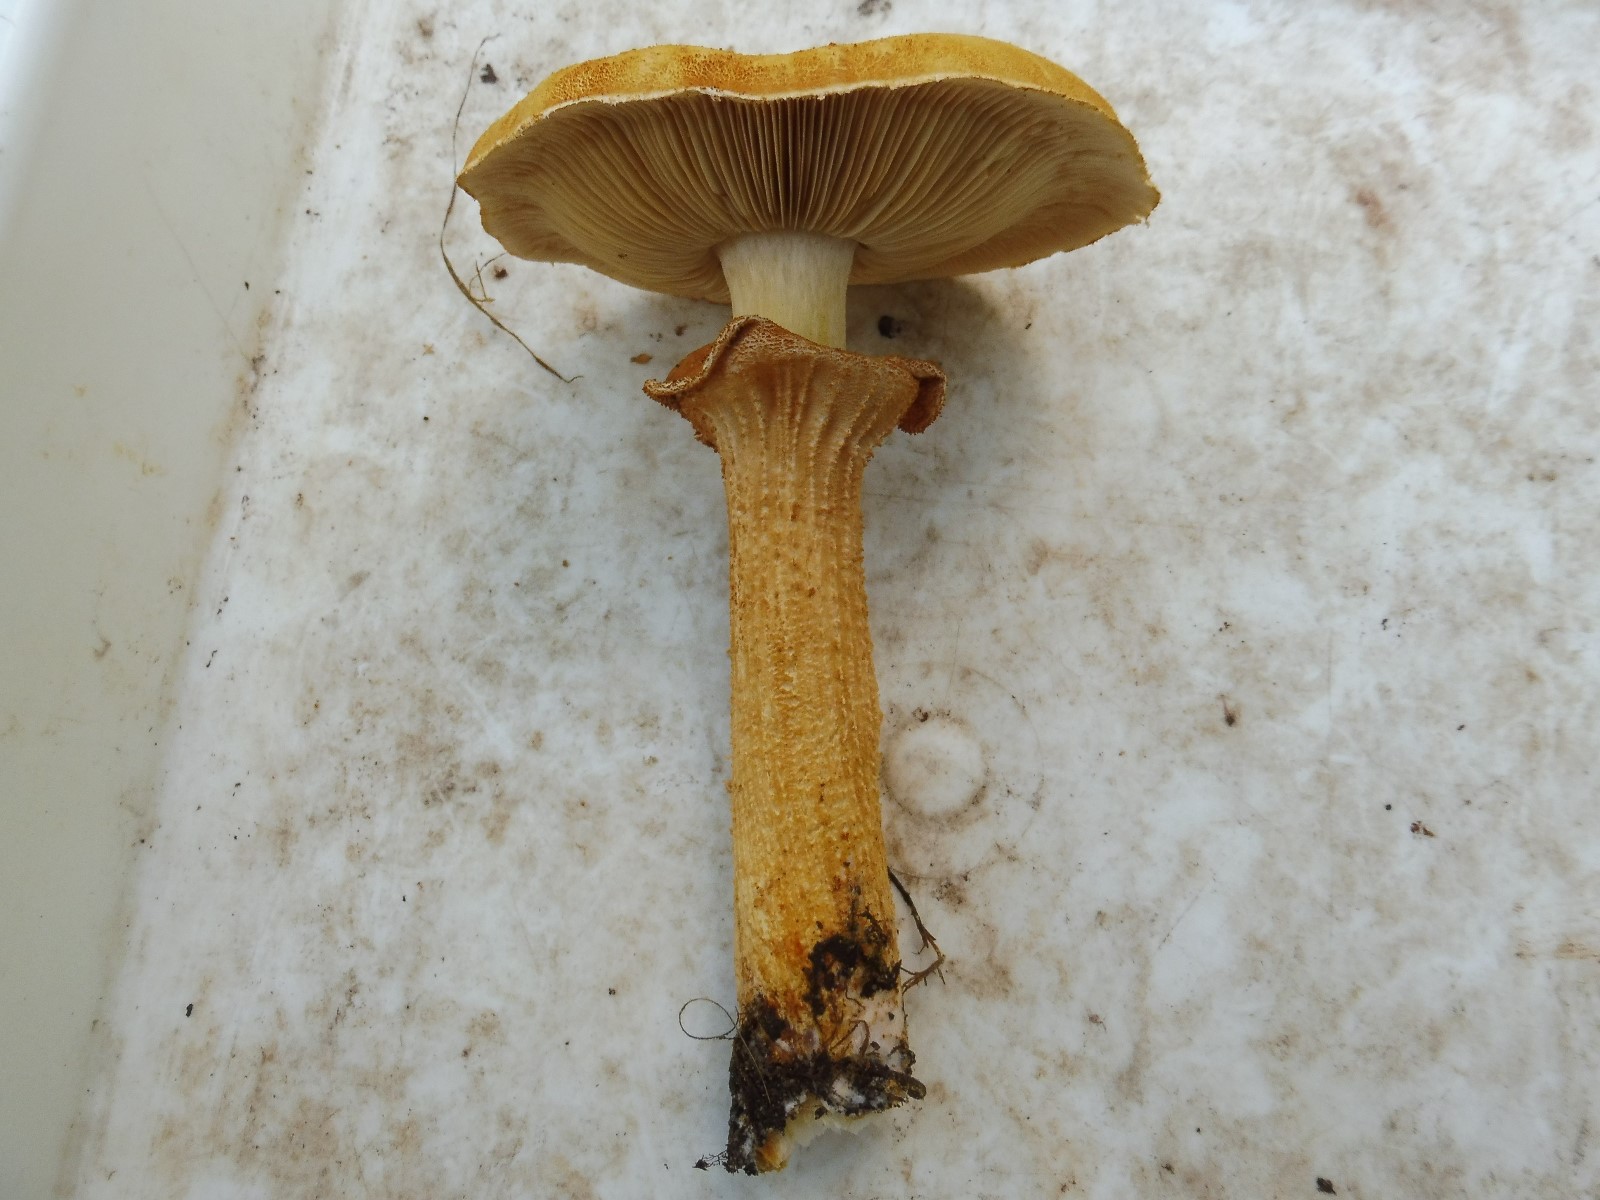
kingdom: Fungi
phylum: Basidiomycota
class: Agaricomycetes
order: Agaricales
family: Tricholomataceae
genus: Phaeolepiota
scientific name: Phaeolepiota aurea
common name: gyldenhat
